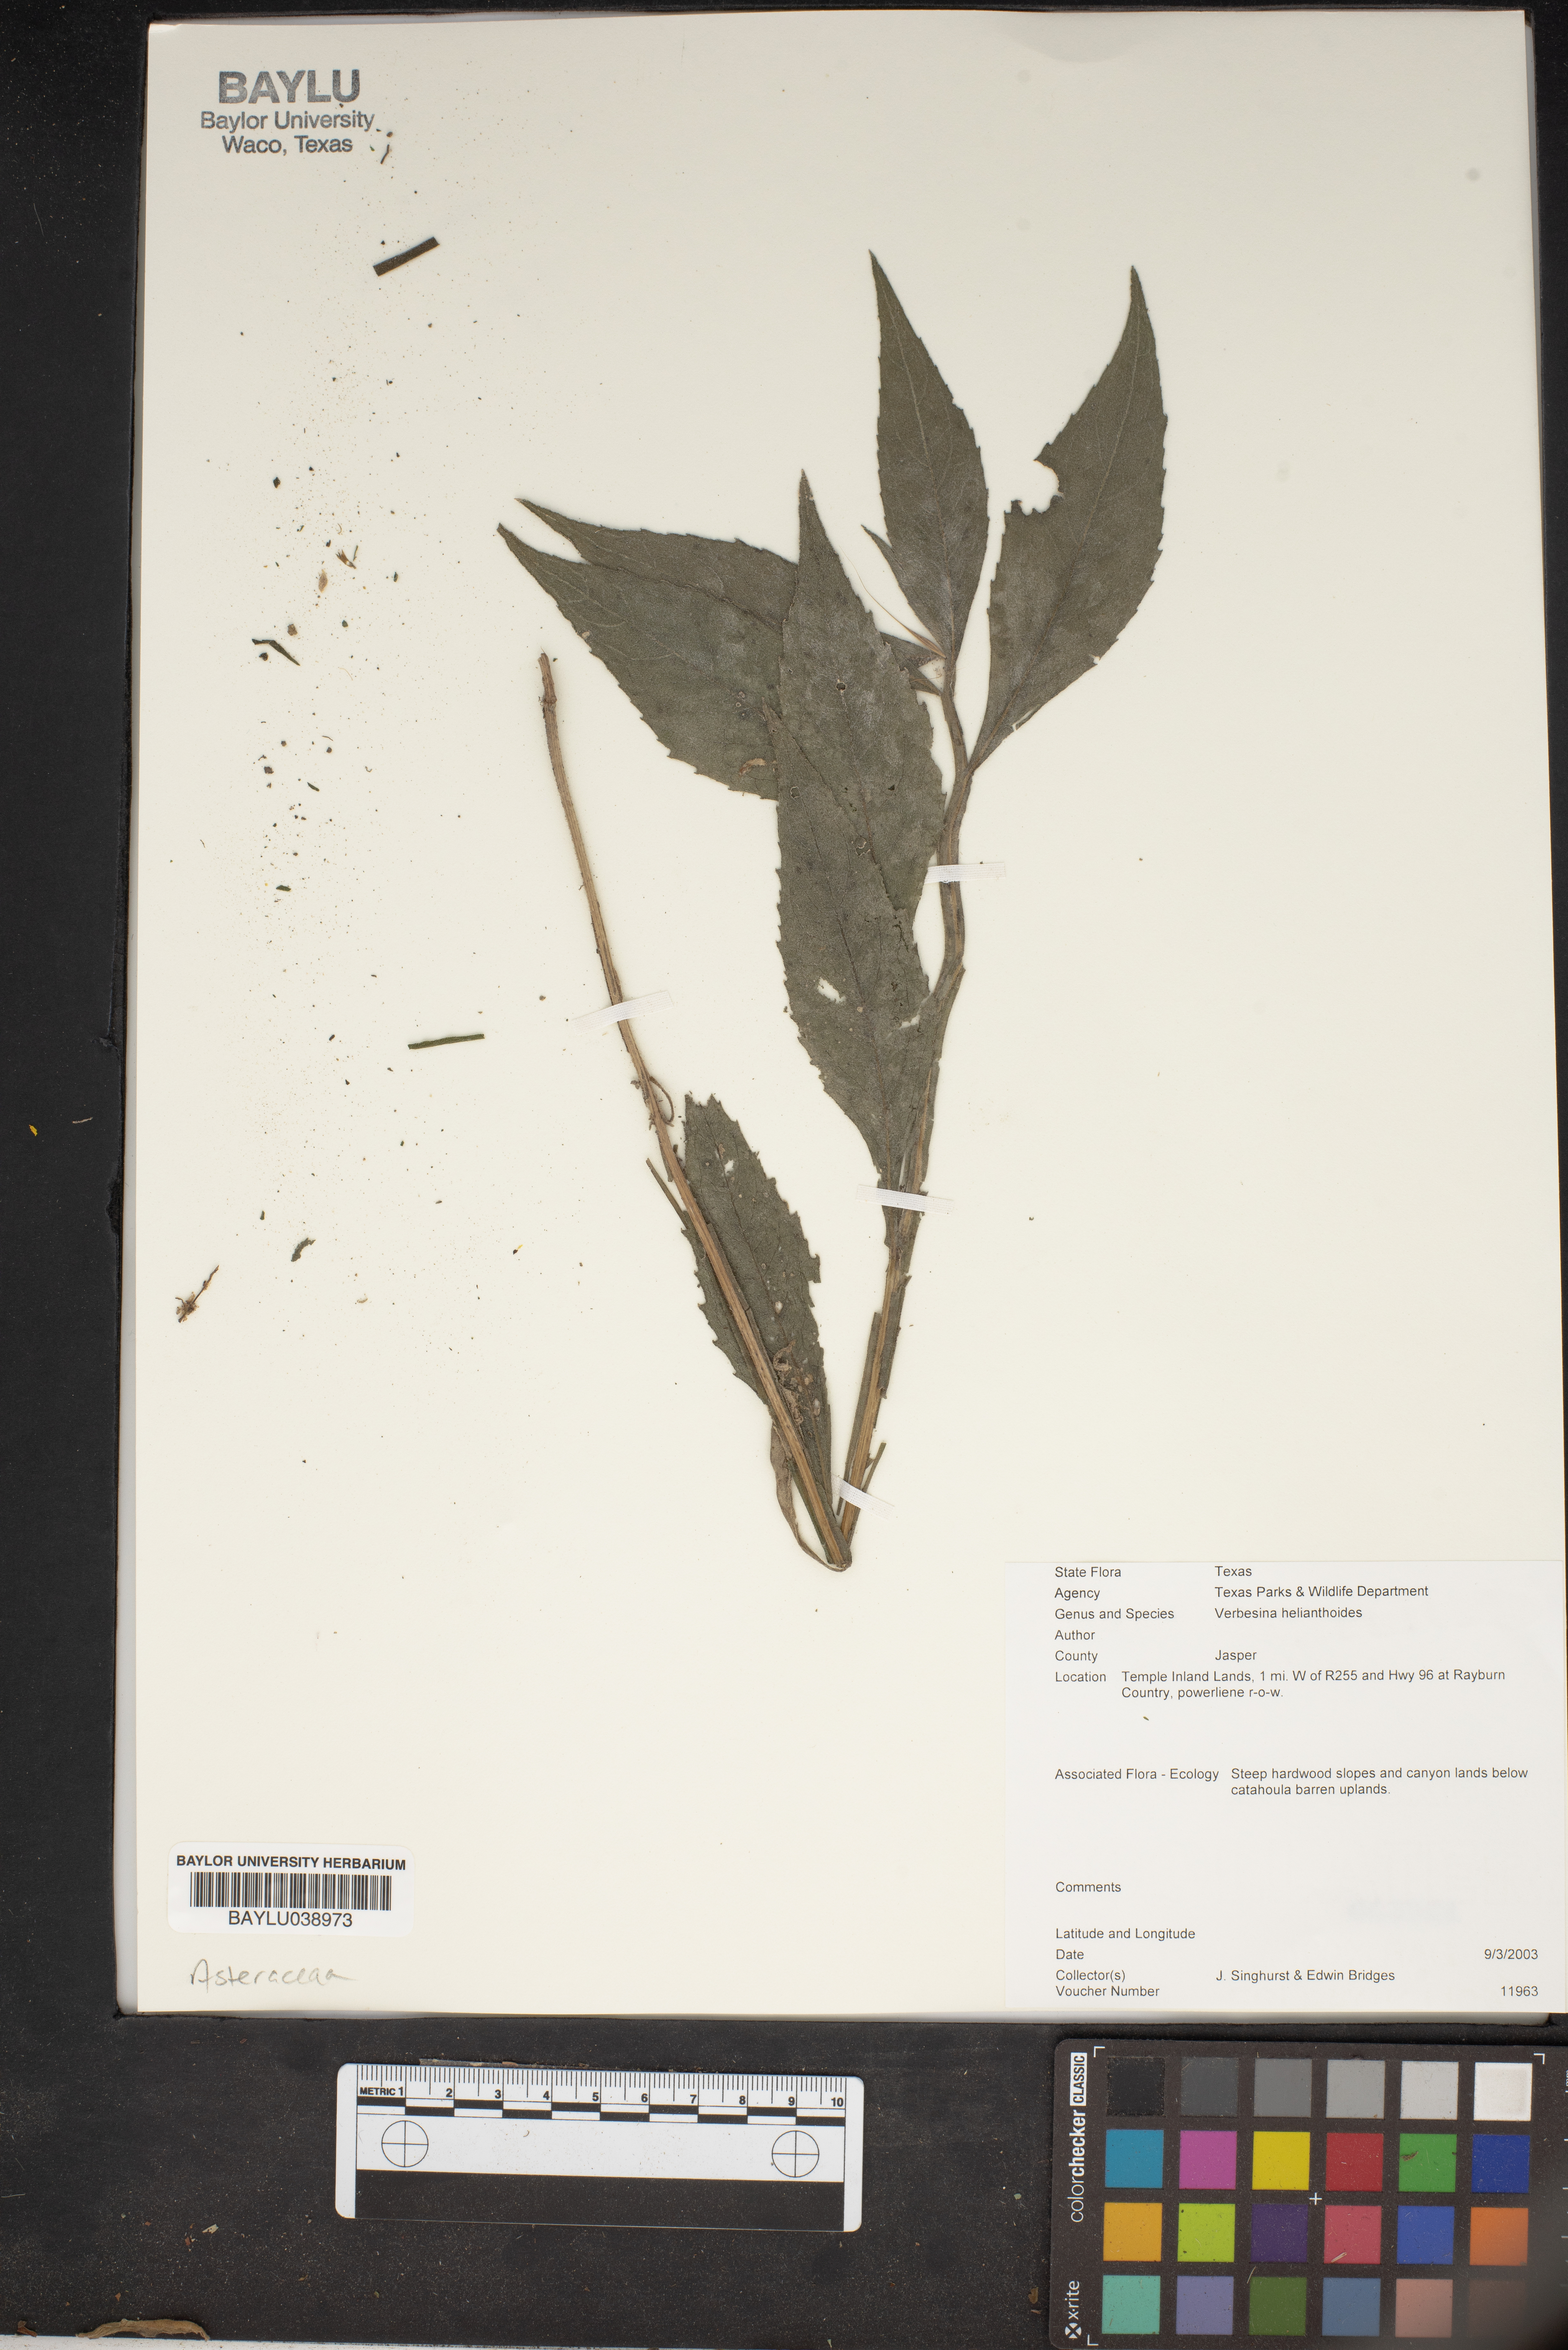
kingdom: Plantae
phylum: Tracheophyta
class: Magnoliopsida
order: Asterales
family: Asteraceae
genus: Verbesina
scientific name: Verbesina helianthoides
